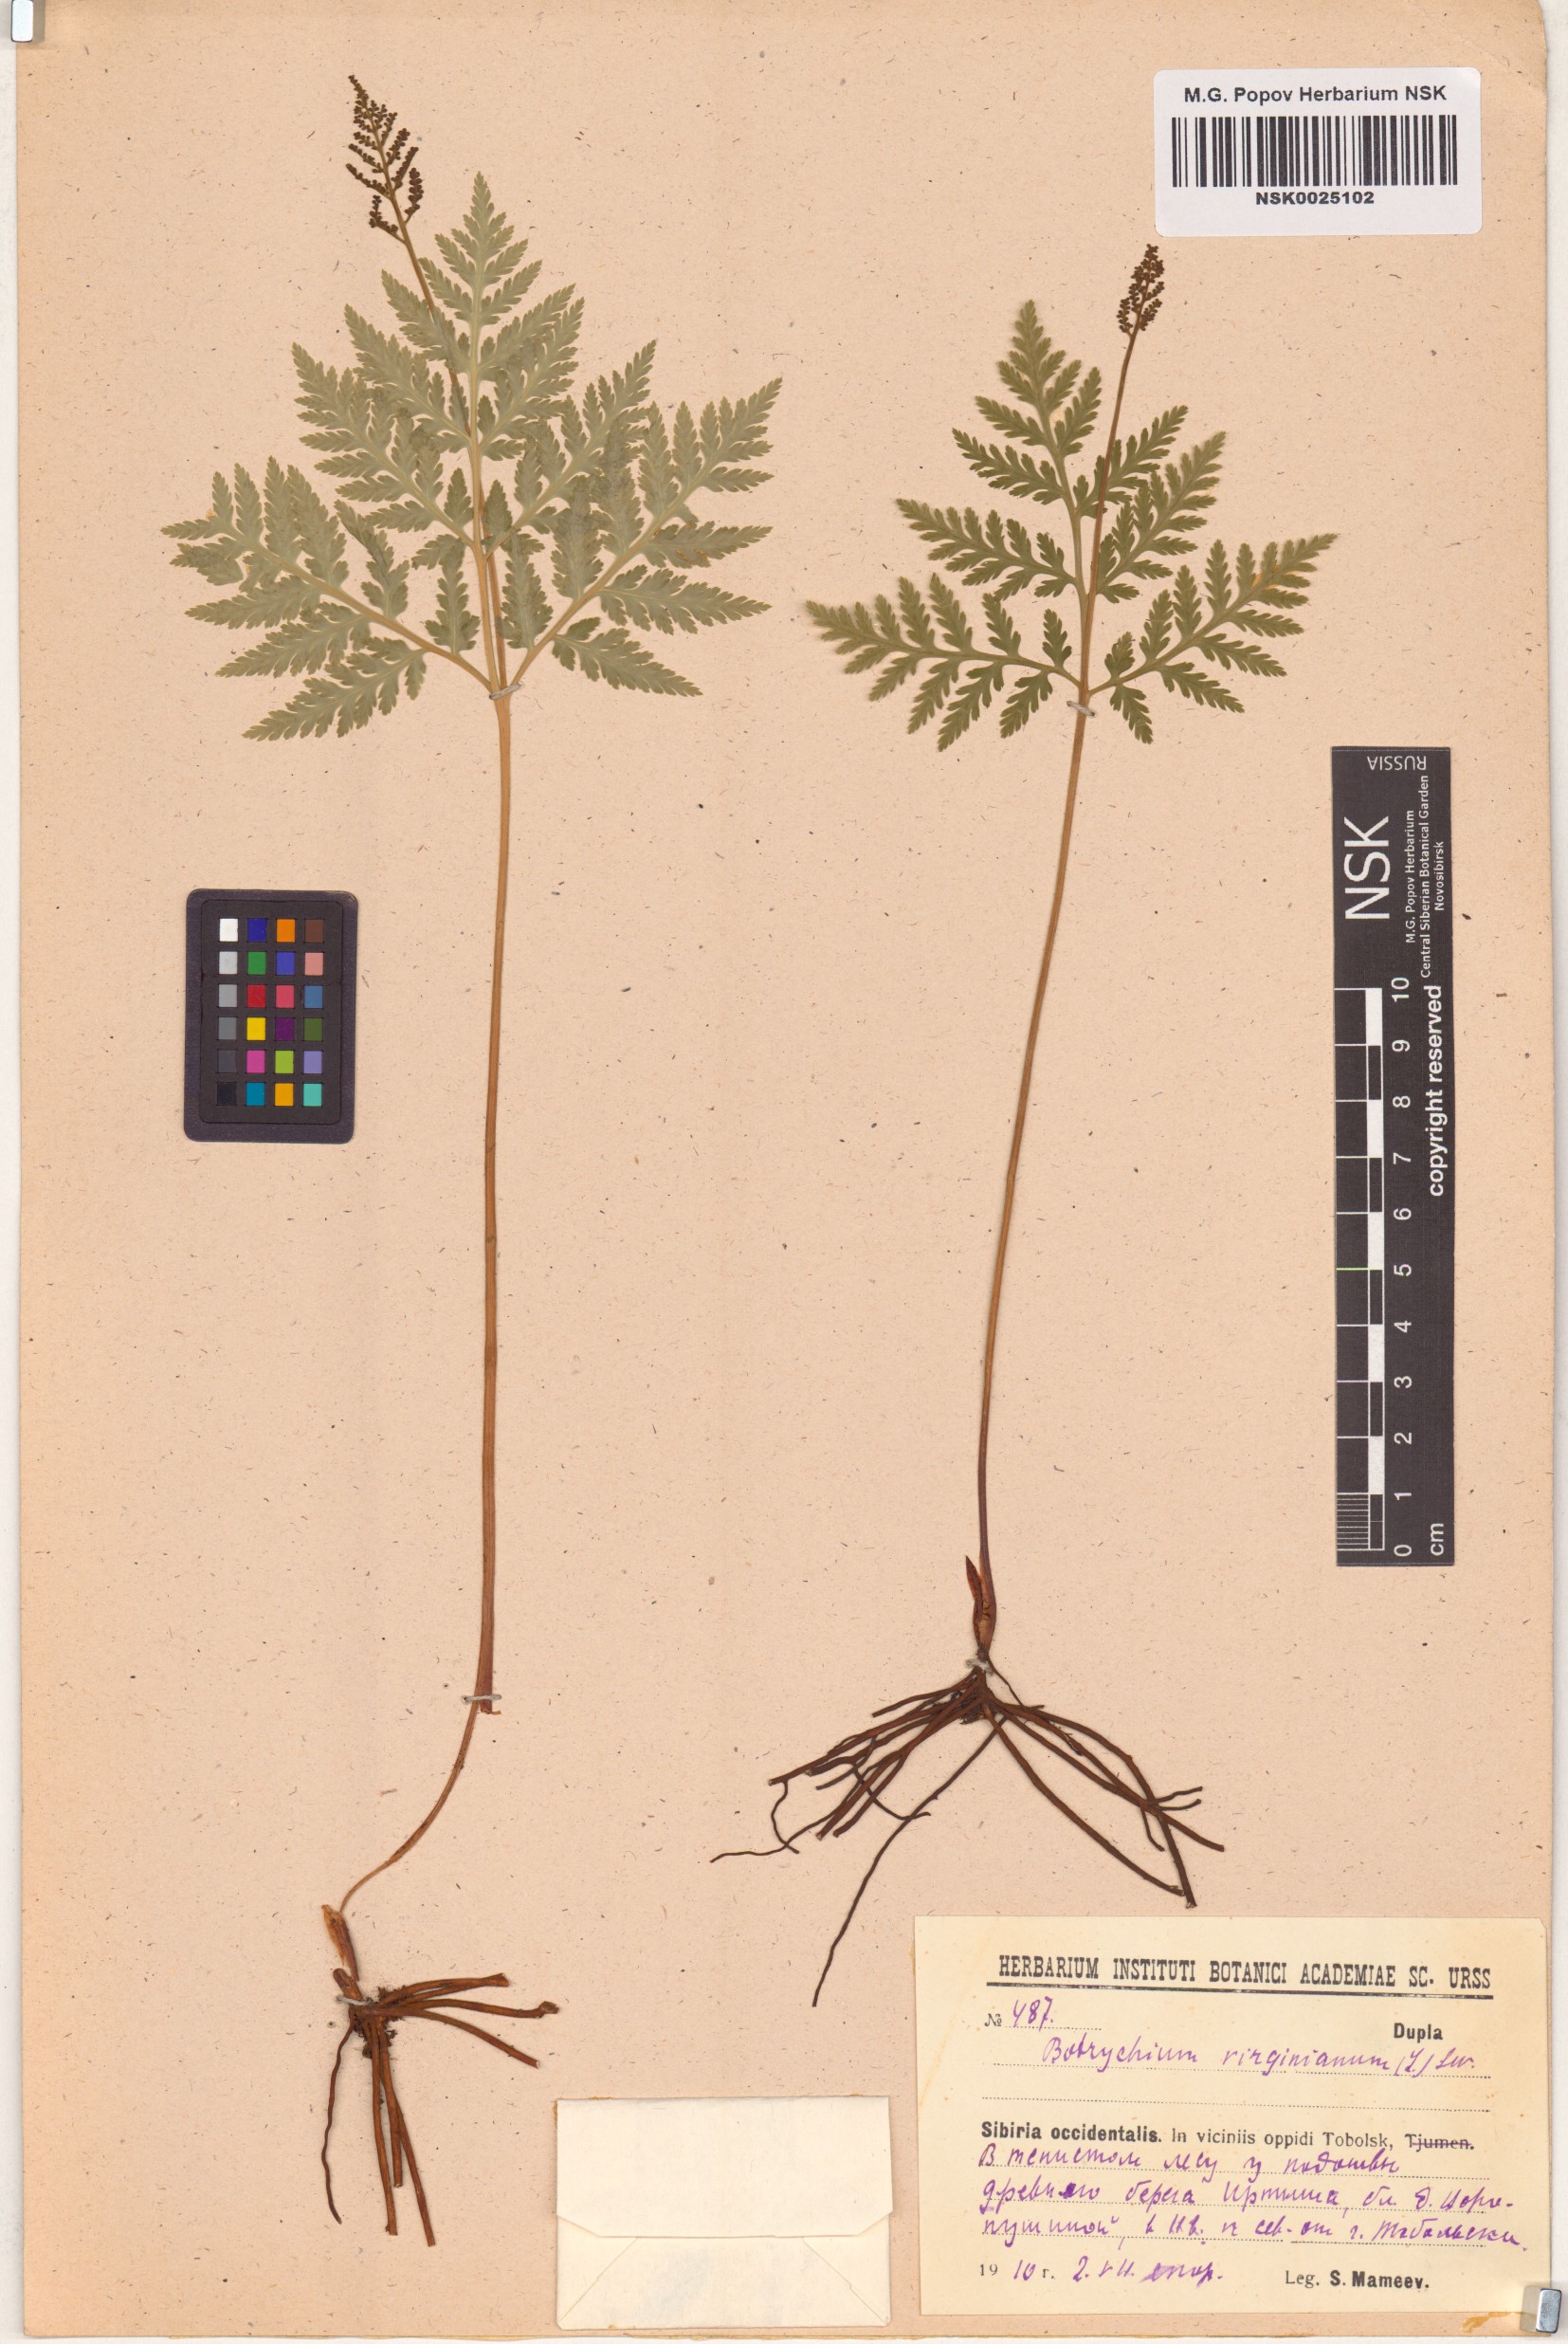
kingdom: Plantae
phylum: Tracheophyta
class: Polypodiopsida
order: Ophioglossales
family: Ophioglossaceae
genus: Botrypus
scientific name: Botrypus virginianus
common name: Common grapefern
